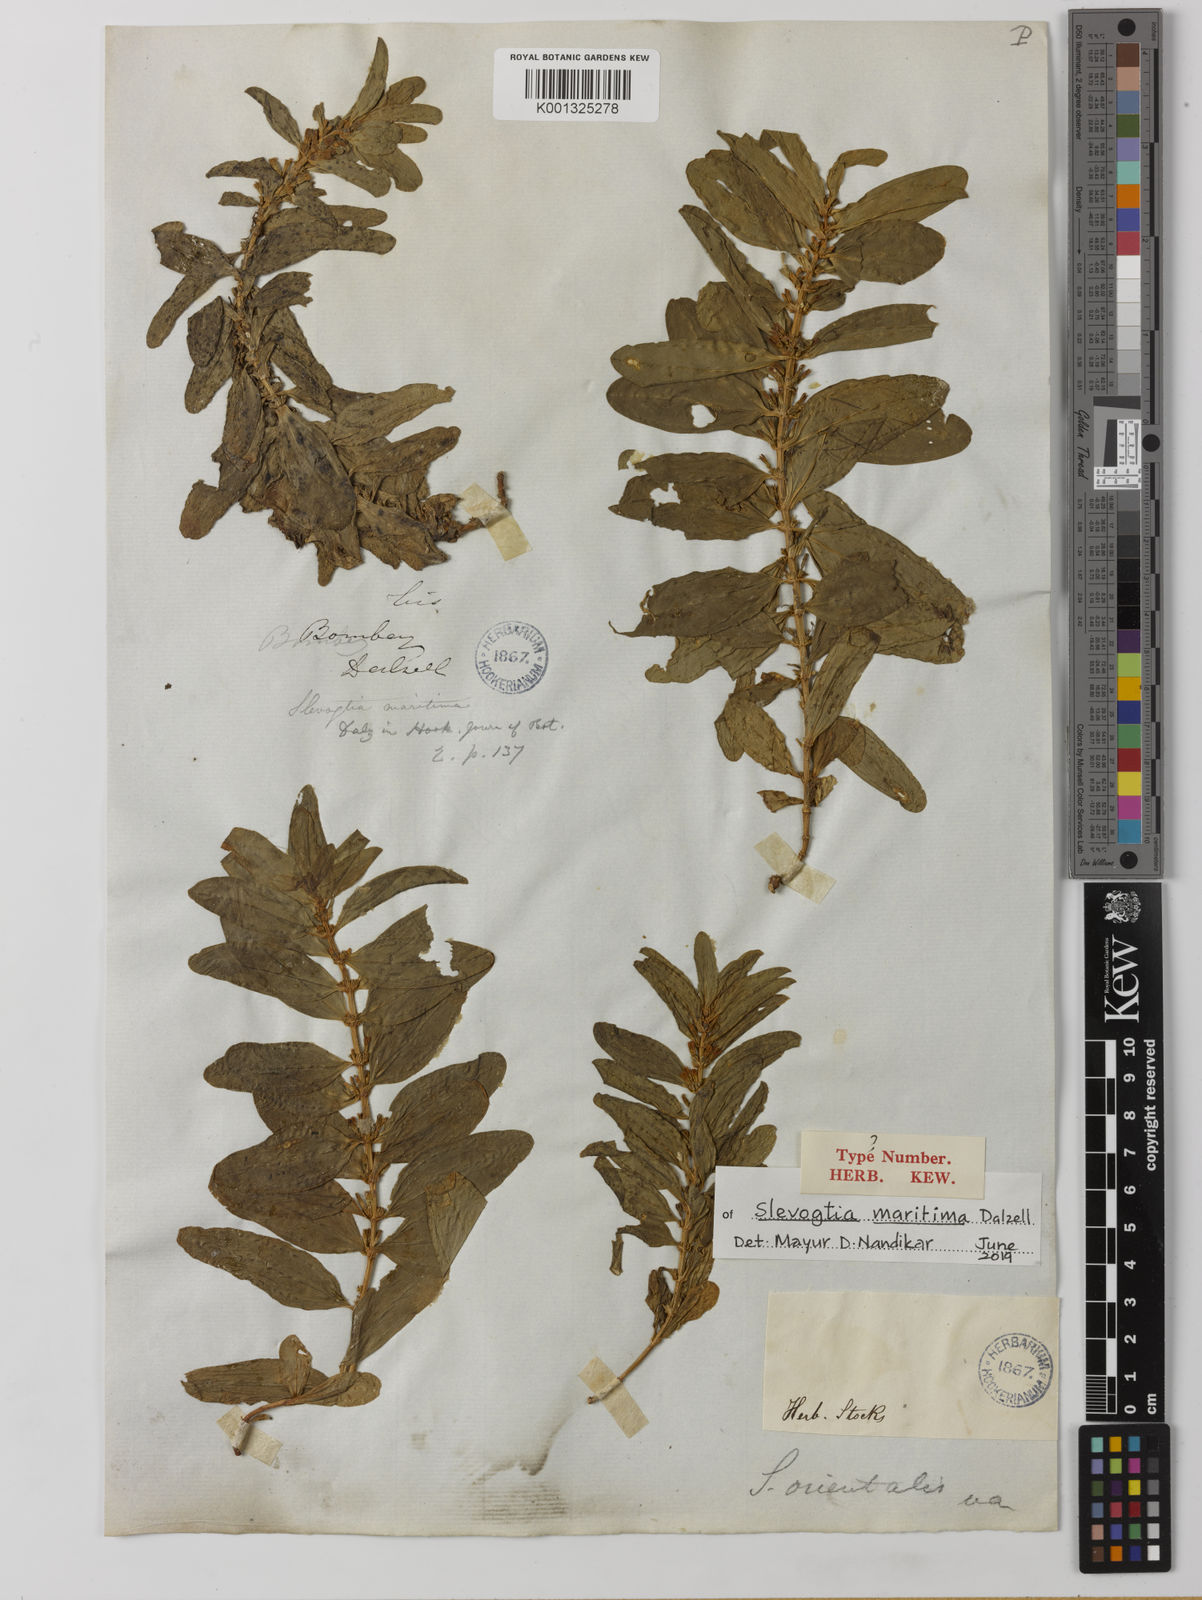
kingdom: Plantae
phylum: Tracheophyta
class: Magnoliopsida
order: Gentianales
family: Gentianaceae
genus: Enicostema
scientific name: Enicostema axillare
